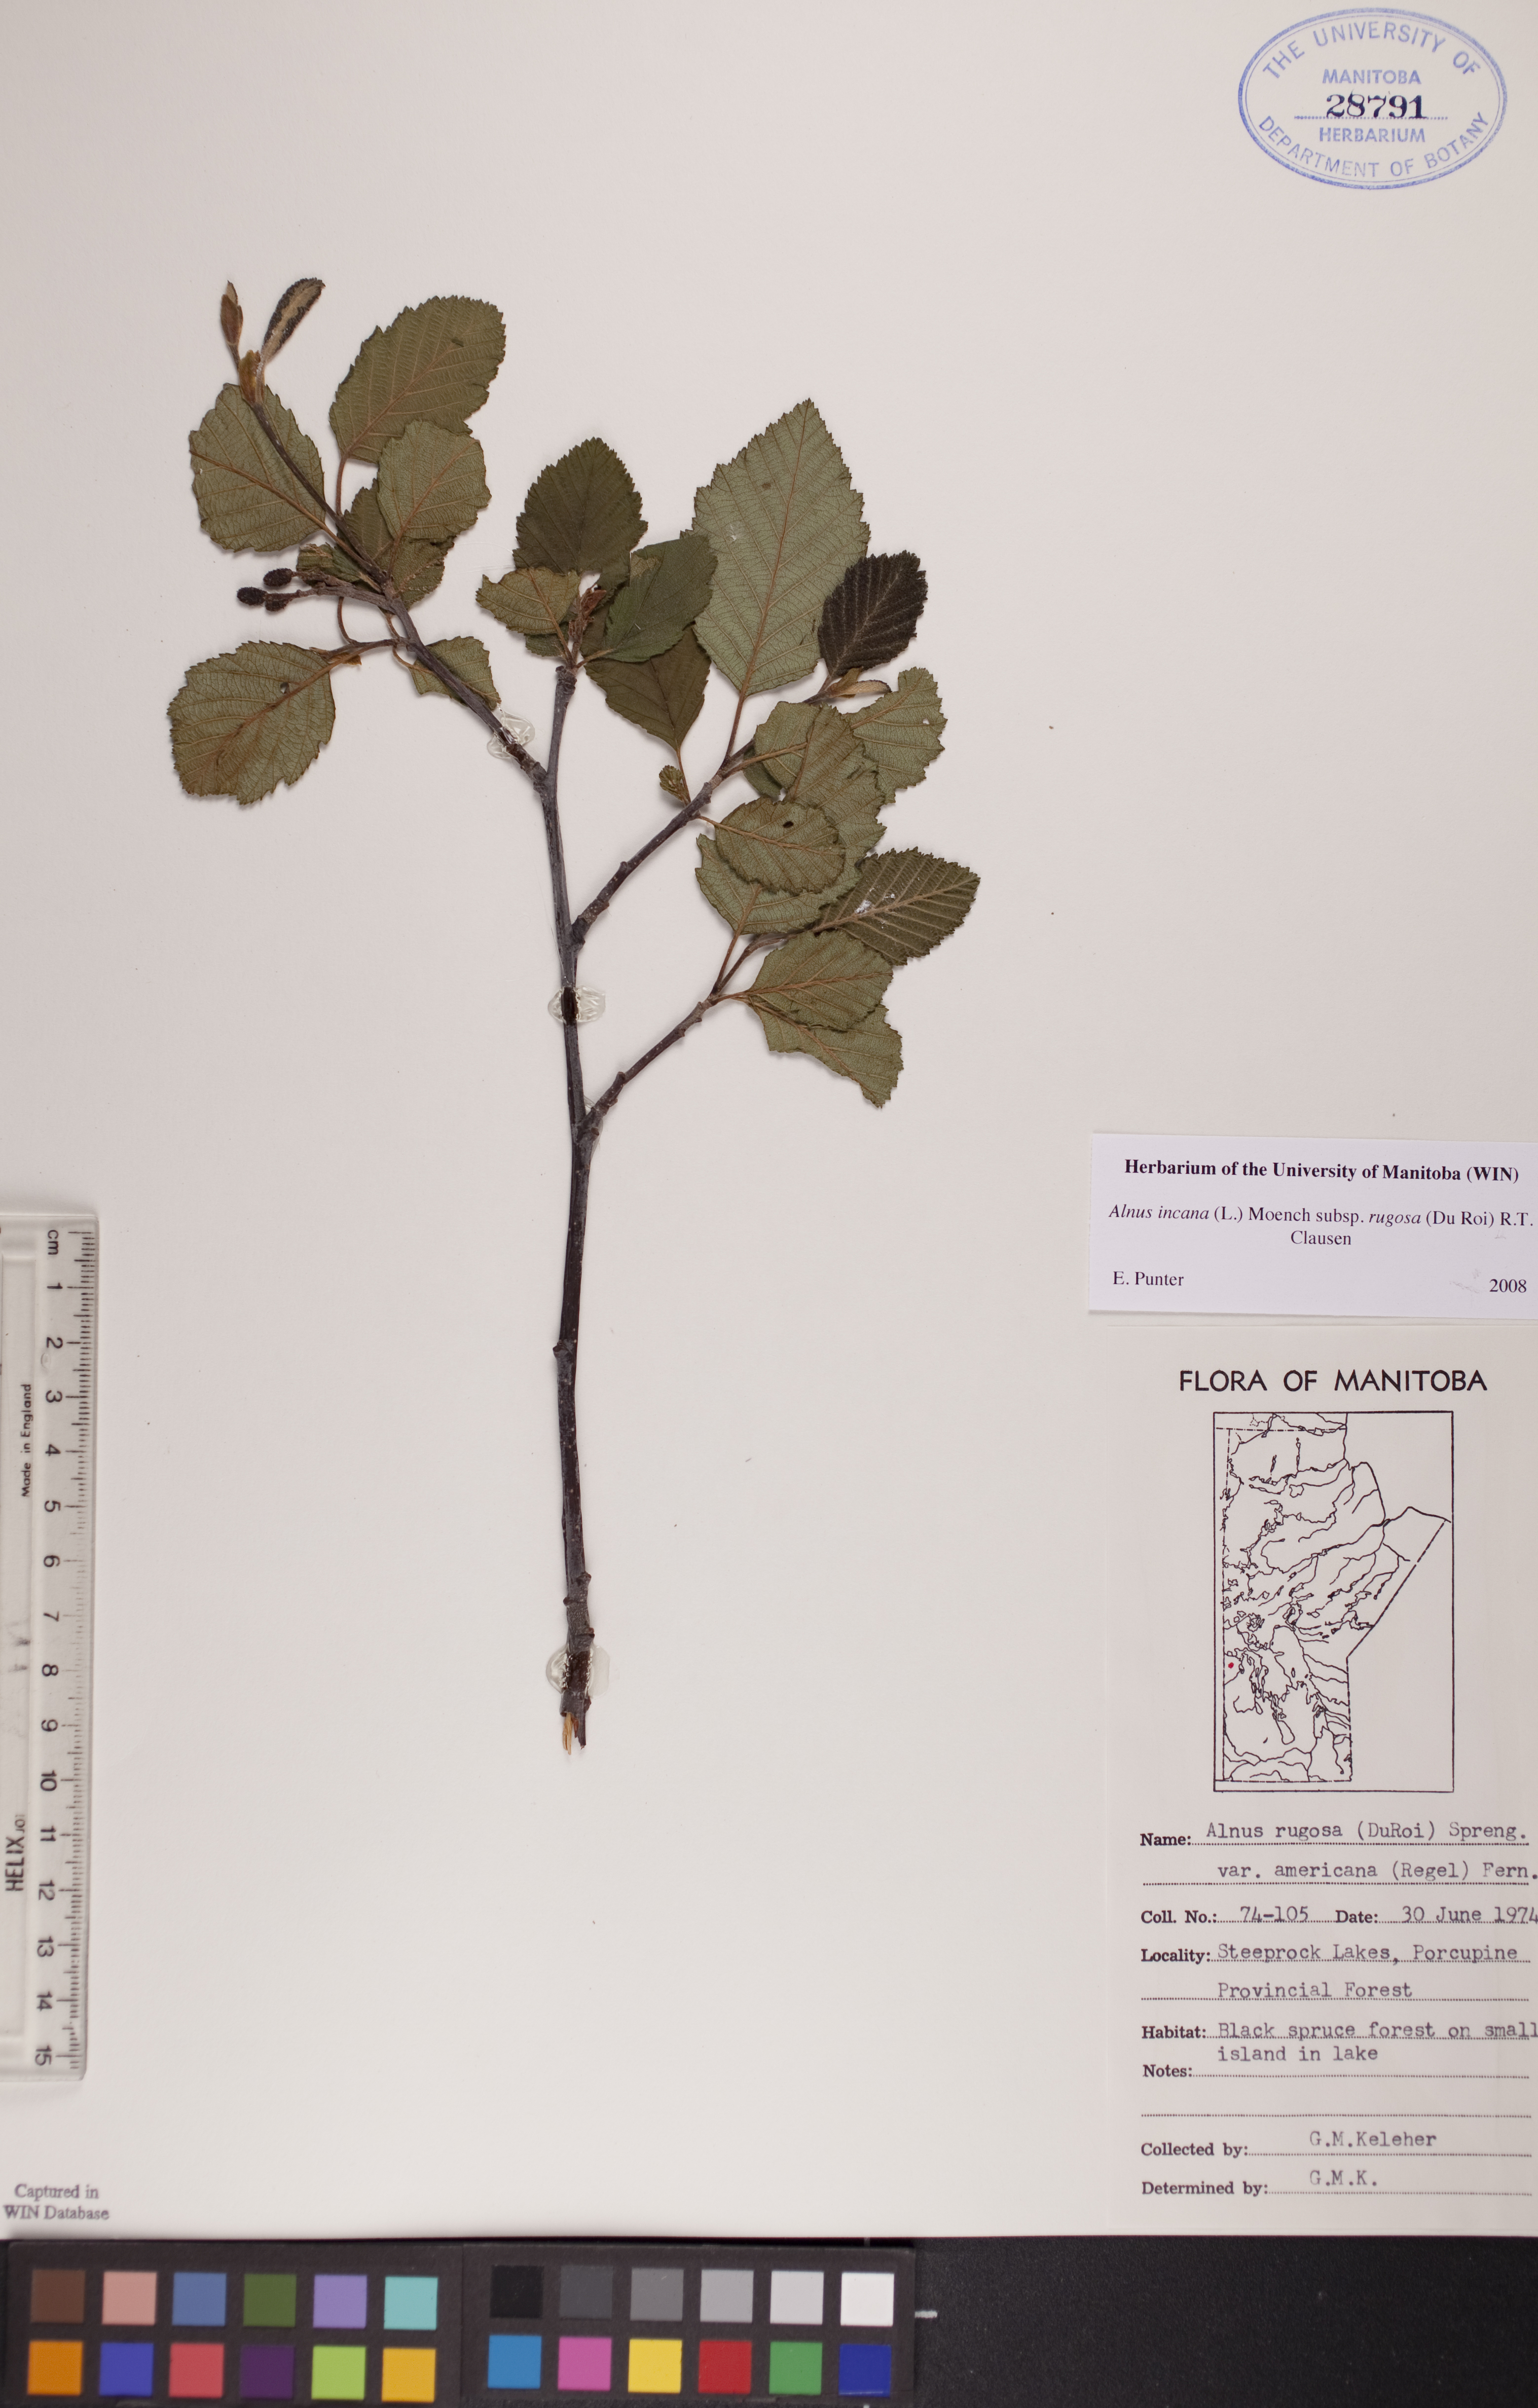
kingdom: Plantae
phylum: Tracheophyta
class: Magnoliopsida
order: Fagales
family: Betulaceae
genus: Alnus
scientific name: Alnus incana
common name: Grey alder
